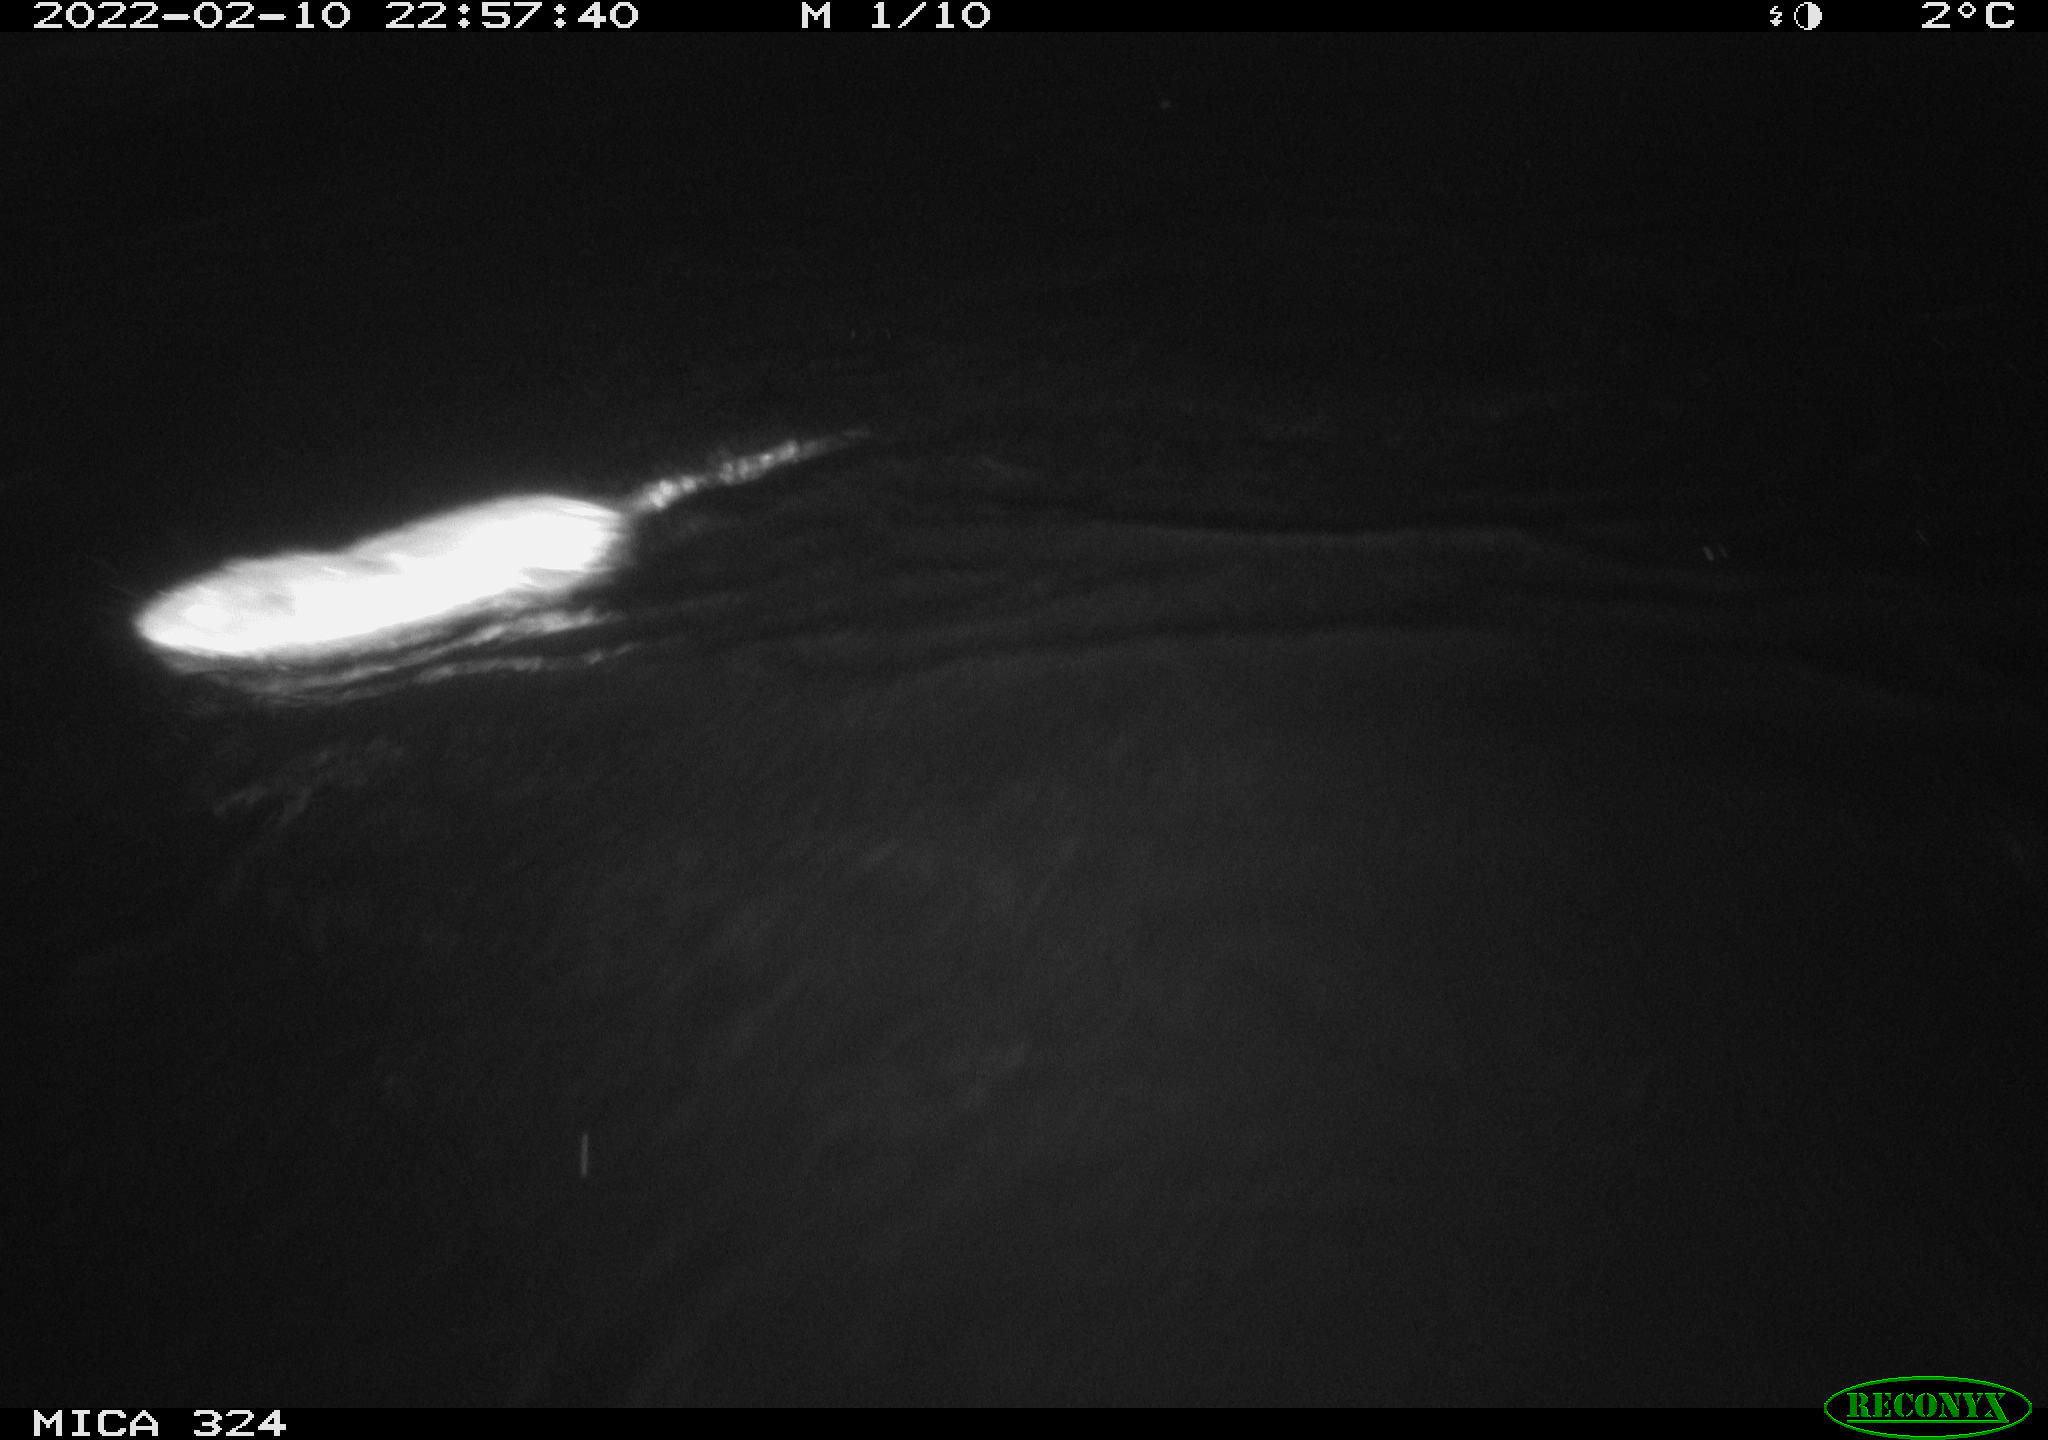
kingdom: Animalia
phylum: Chordata
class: Mammalia
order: Rodentia
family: Cricetidae
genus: Ondatra
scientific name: Ondatra zibethicus
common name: Muskrat
